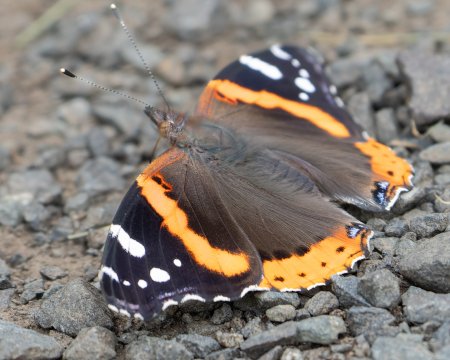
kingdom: Animalia
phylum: Arthropoda
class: Insecta
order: Lepidoptera
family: Nymphalidae
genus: Vanessa
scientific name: Vanessa atalanta
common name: Red Admiral
